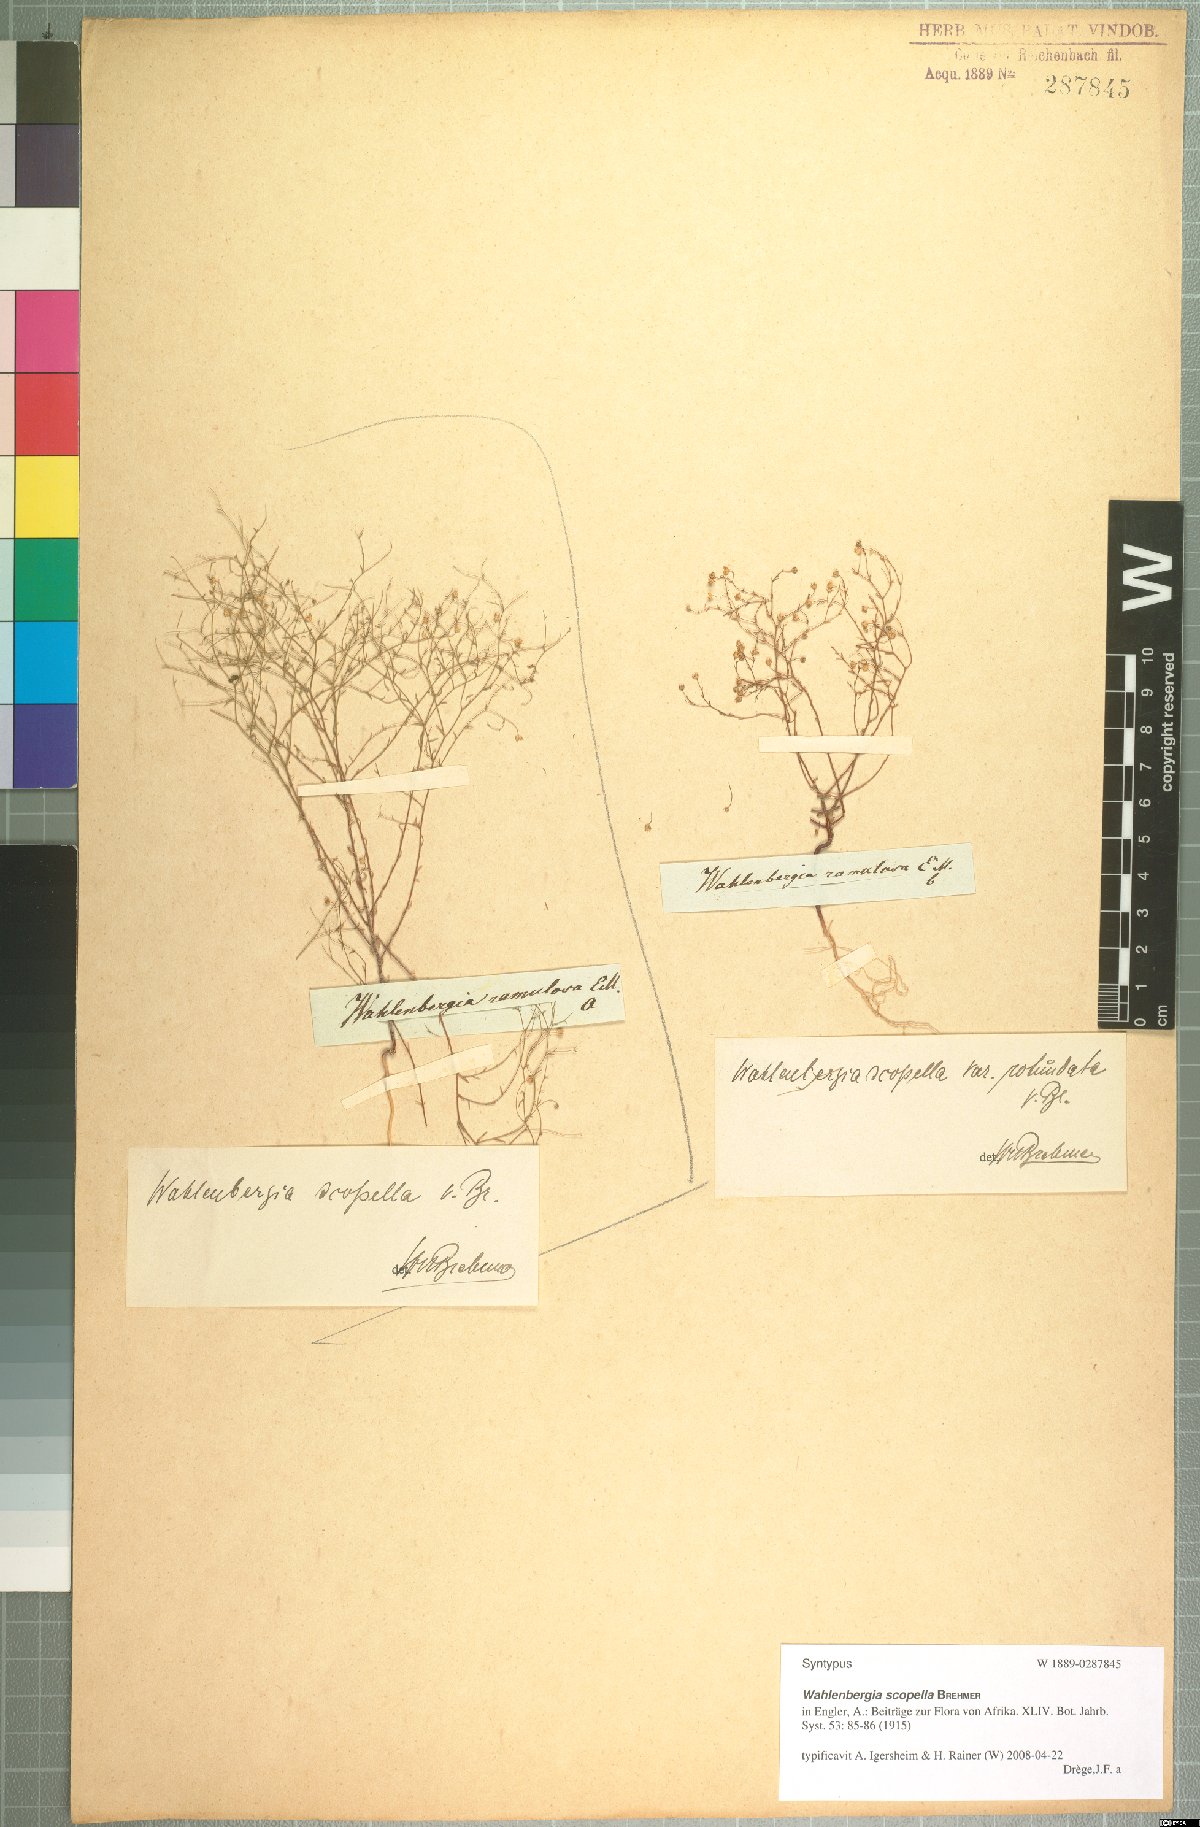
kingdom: Plantae
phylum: Tracheophyta
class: Magnoliopsida
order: Asterales
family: Campanulaceae
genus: Wahlenbergia
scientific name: Wahlenbergia scopella
